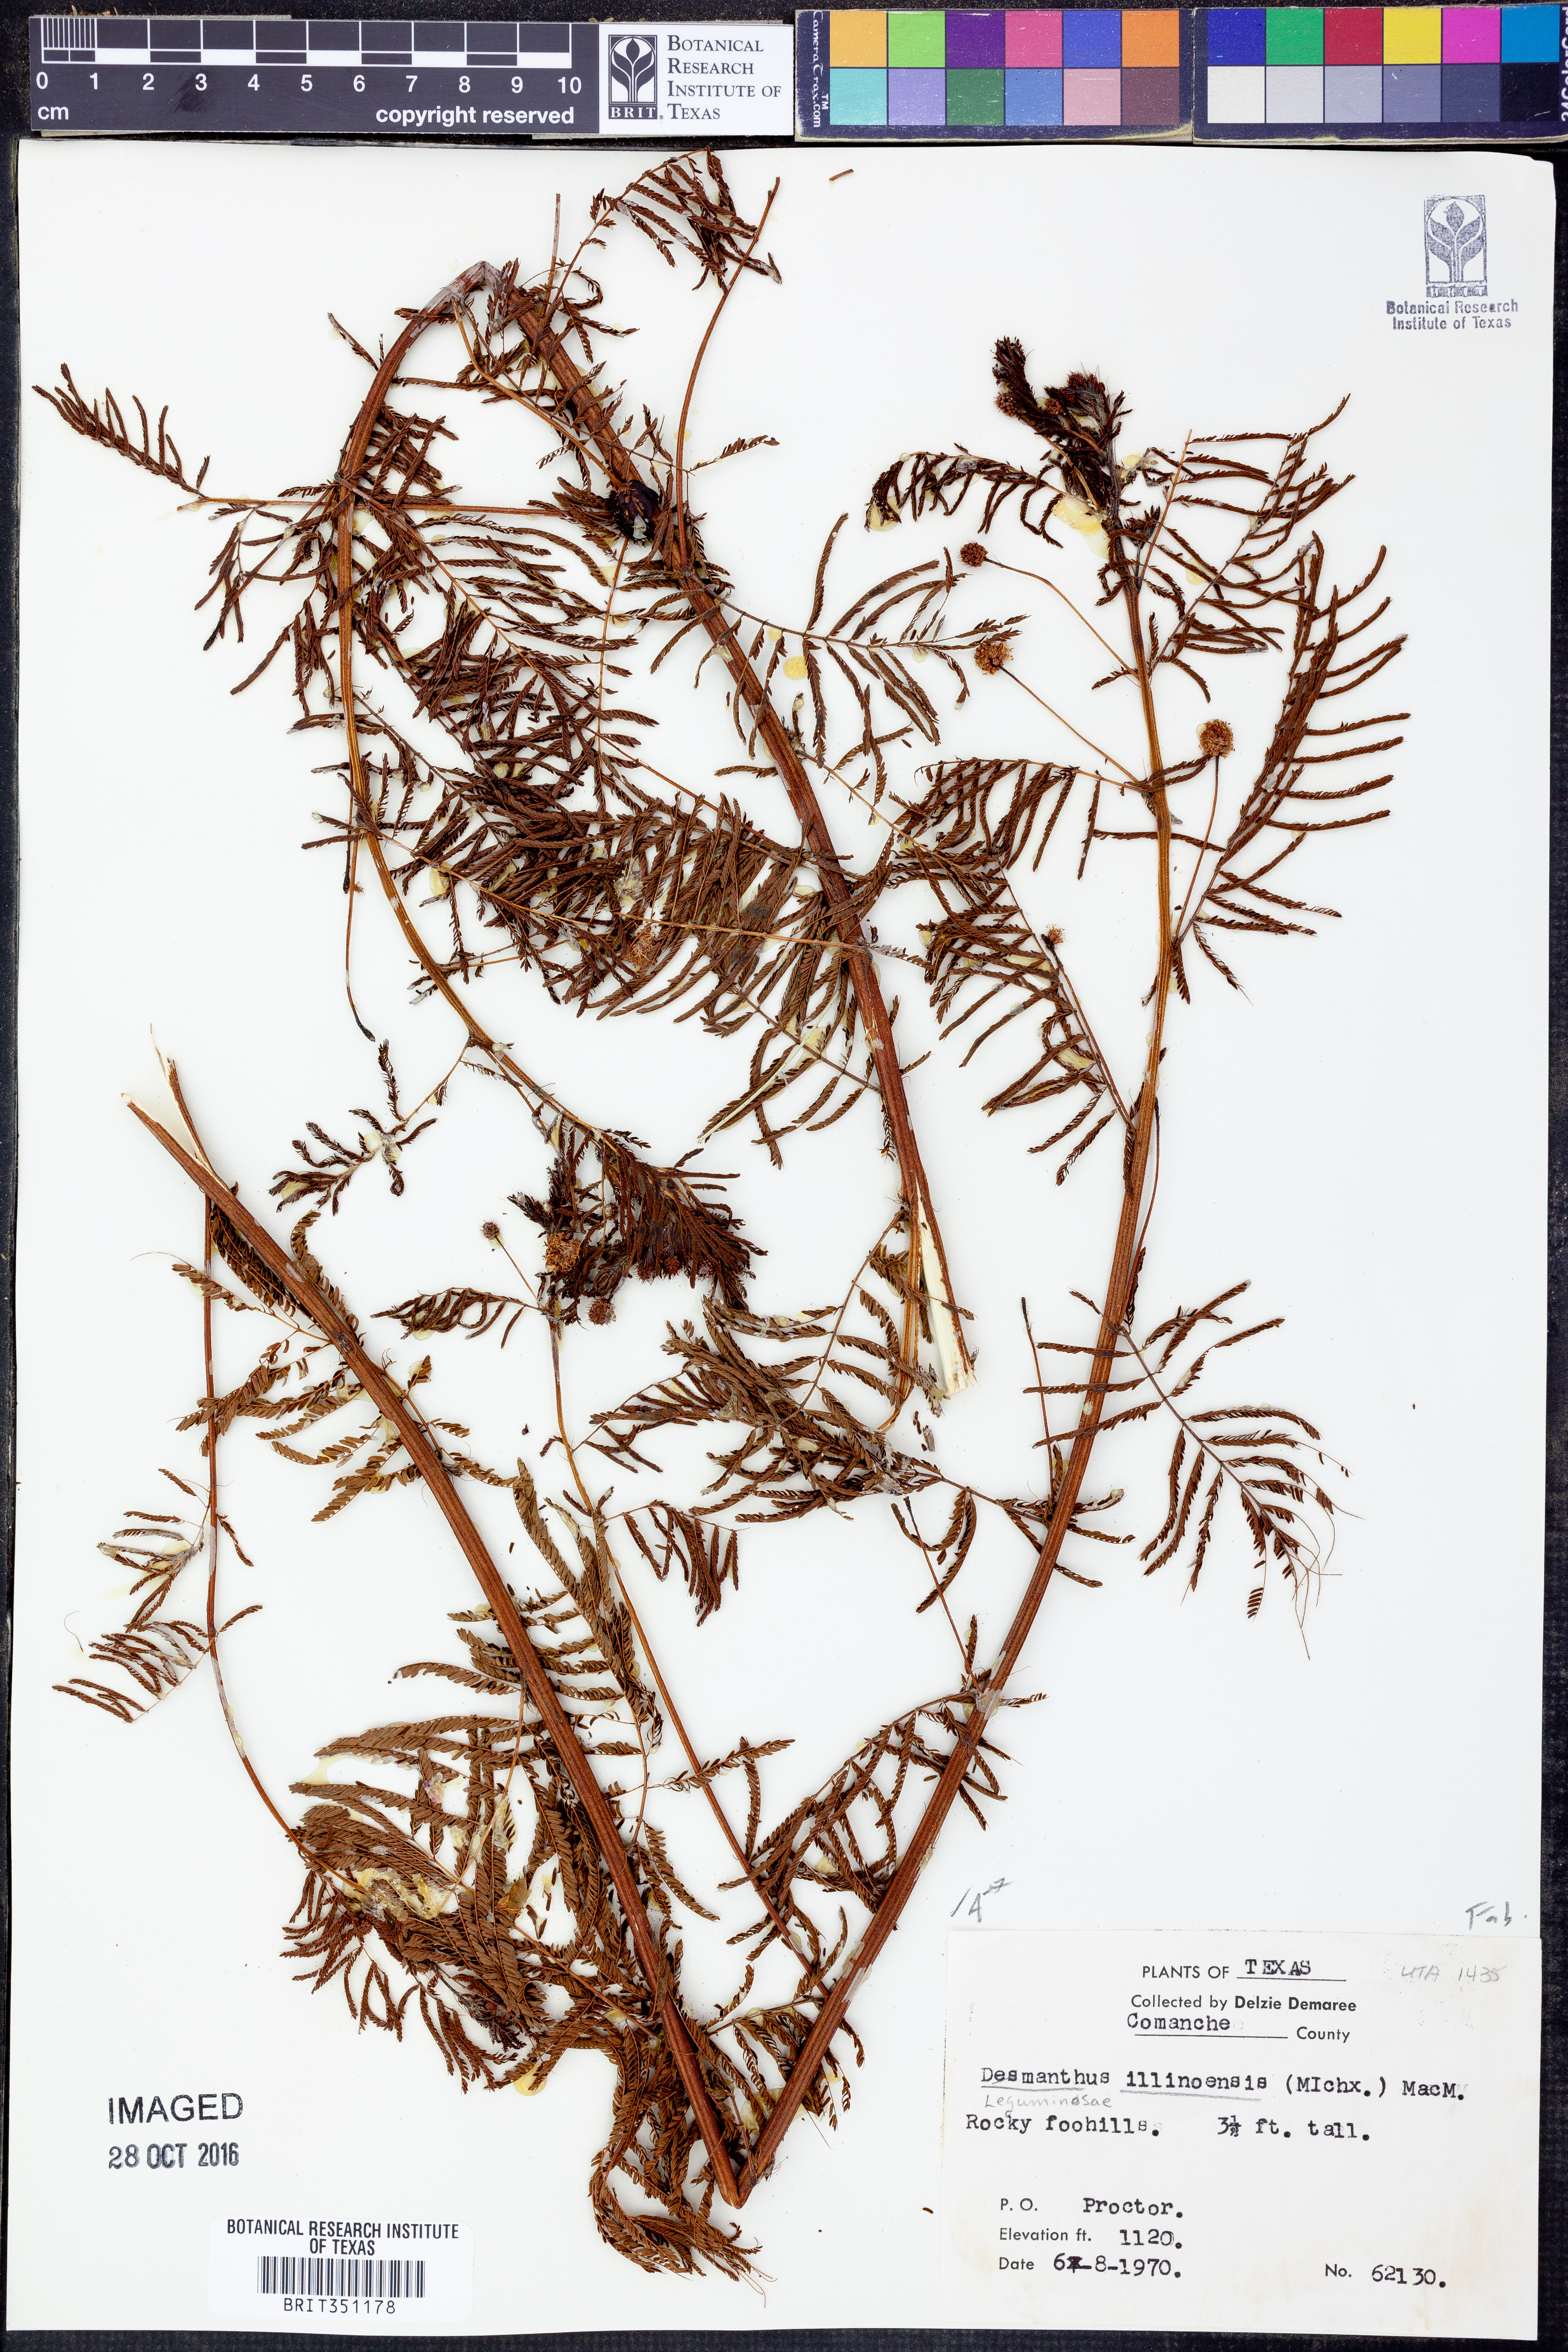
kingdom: Plantae
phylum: Tracheophyta
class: Magnoliopsida
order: Fabales
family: Fabaceae
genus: Desmanthus
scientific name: Desmanthus illinoensis
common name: Illinois bundle-flower
